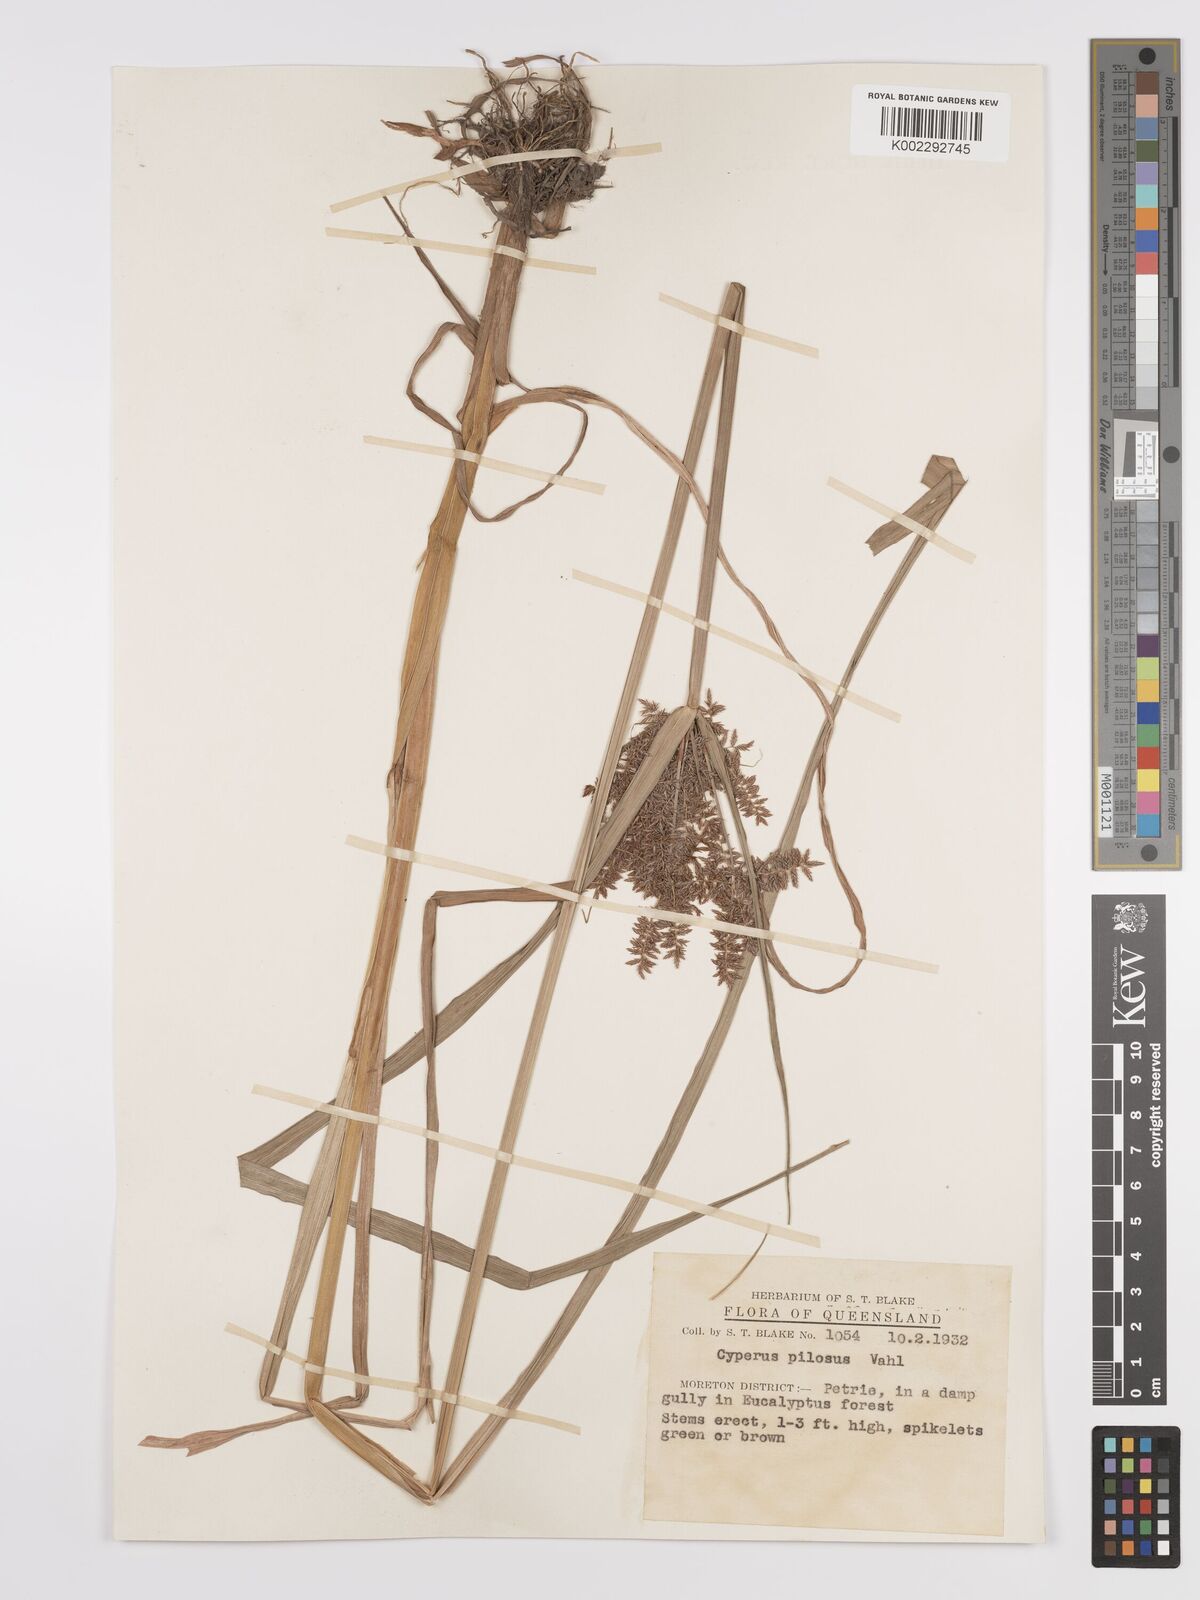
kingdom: Plantae
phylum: Tracheophyta
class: Liliopsida
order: Poales
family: Cyperaceae
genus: Cyperus
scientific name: Cyperus pilosus
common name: Fuzzy flatsedge
